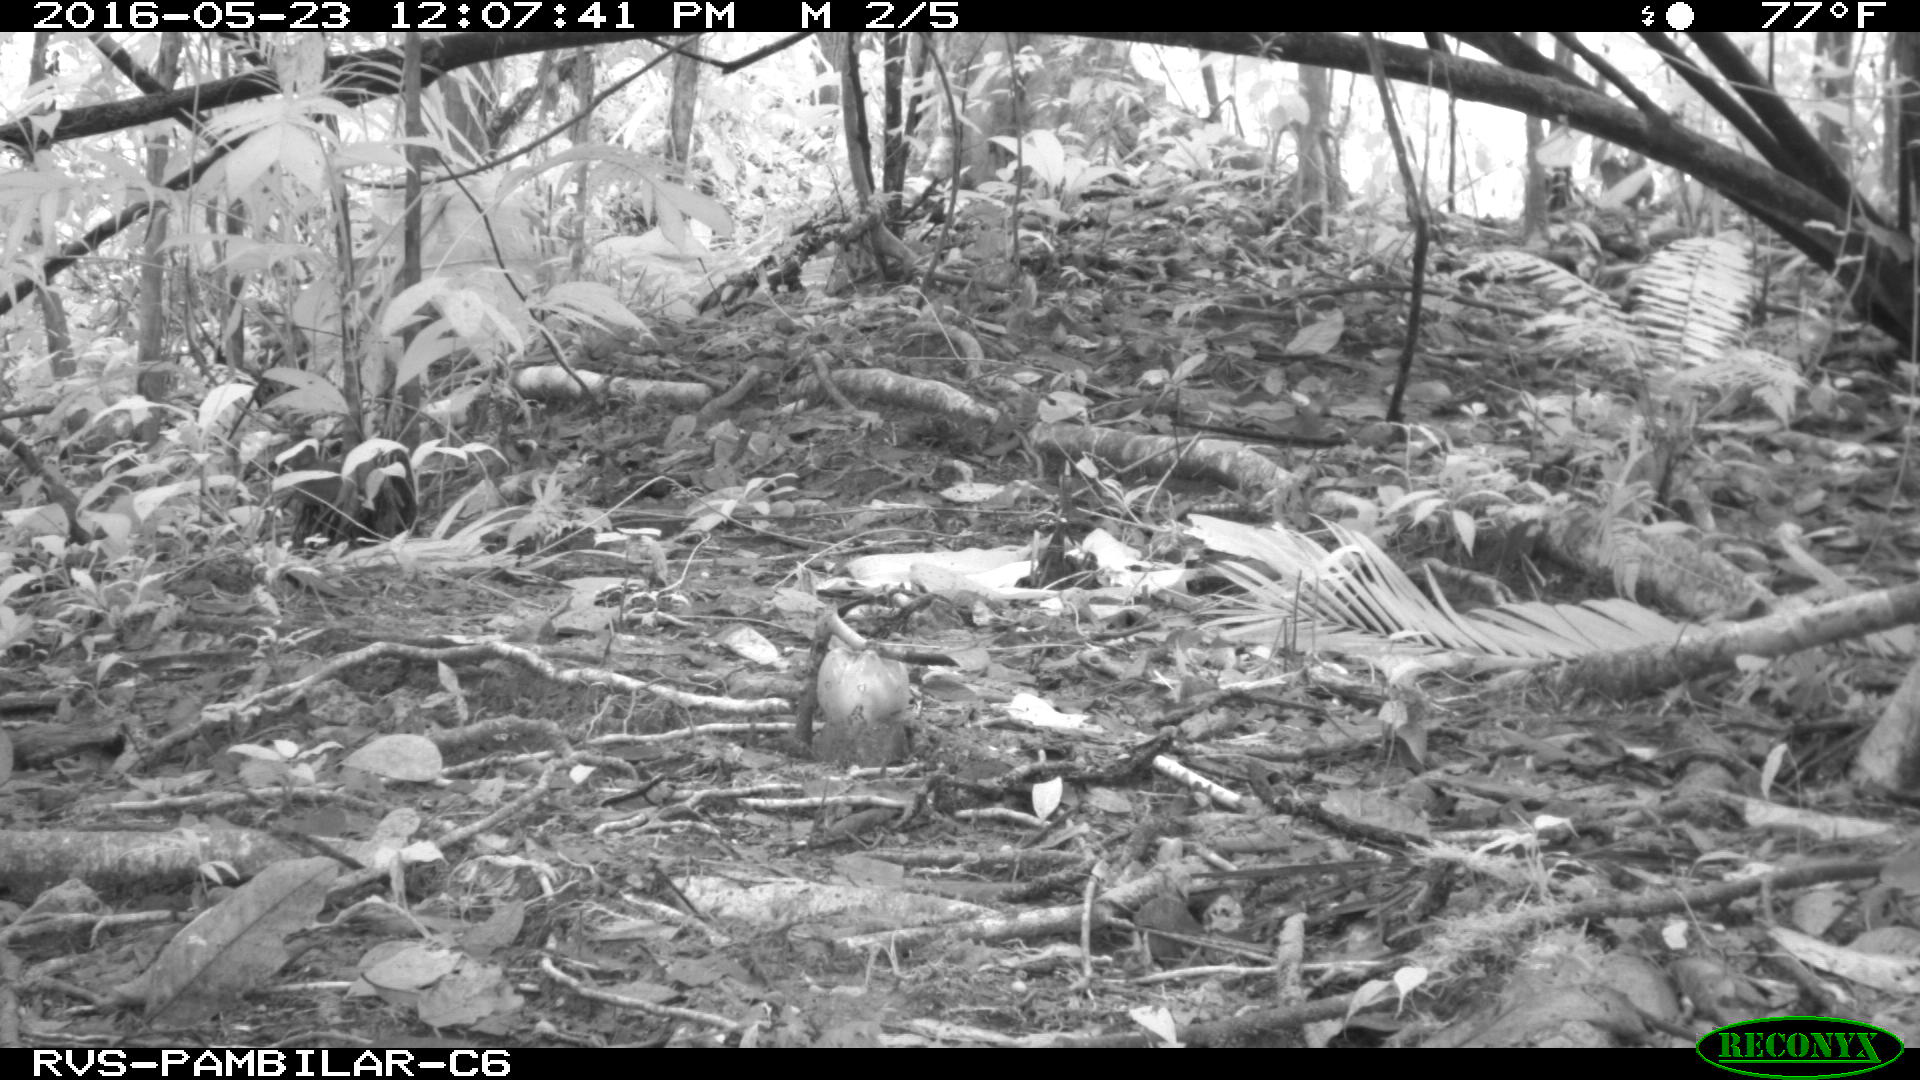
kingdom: Animalia
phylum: Chordata
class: Mammalia
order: Rodentia
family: Dasyproctidae
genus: Dasyprocta
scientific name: Dasyprocta punctata
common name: Central american agouti
